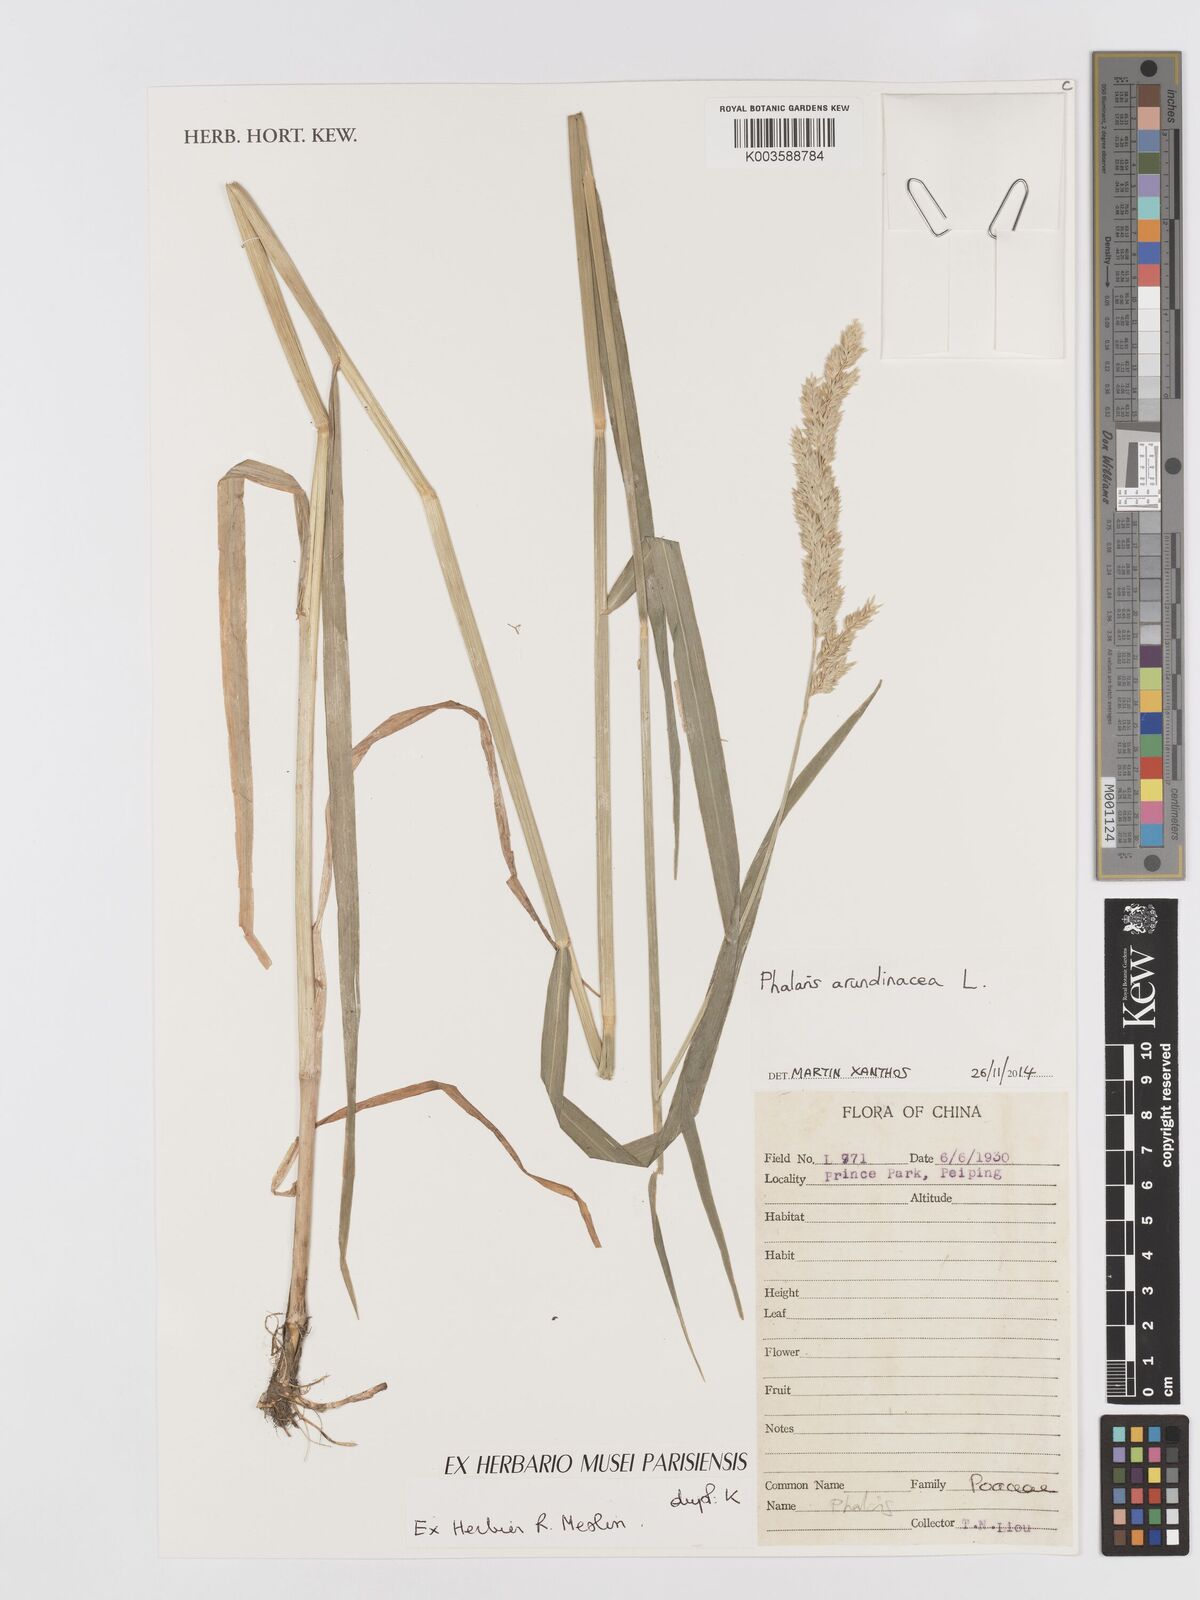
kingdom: Plantae
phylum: Tracheophyta
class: Liliopsida
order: Poales
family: Poaceae
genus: Phalaris
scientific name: Phalaris arundinacea
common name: Reed canary-grass
